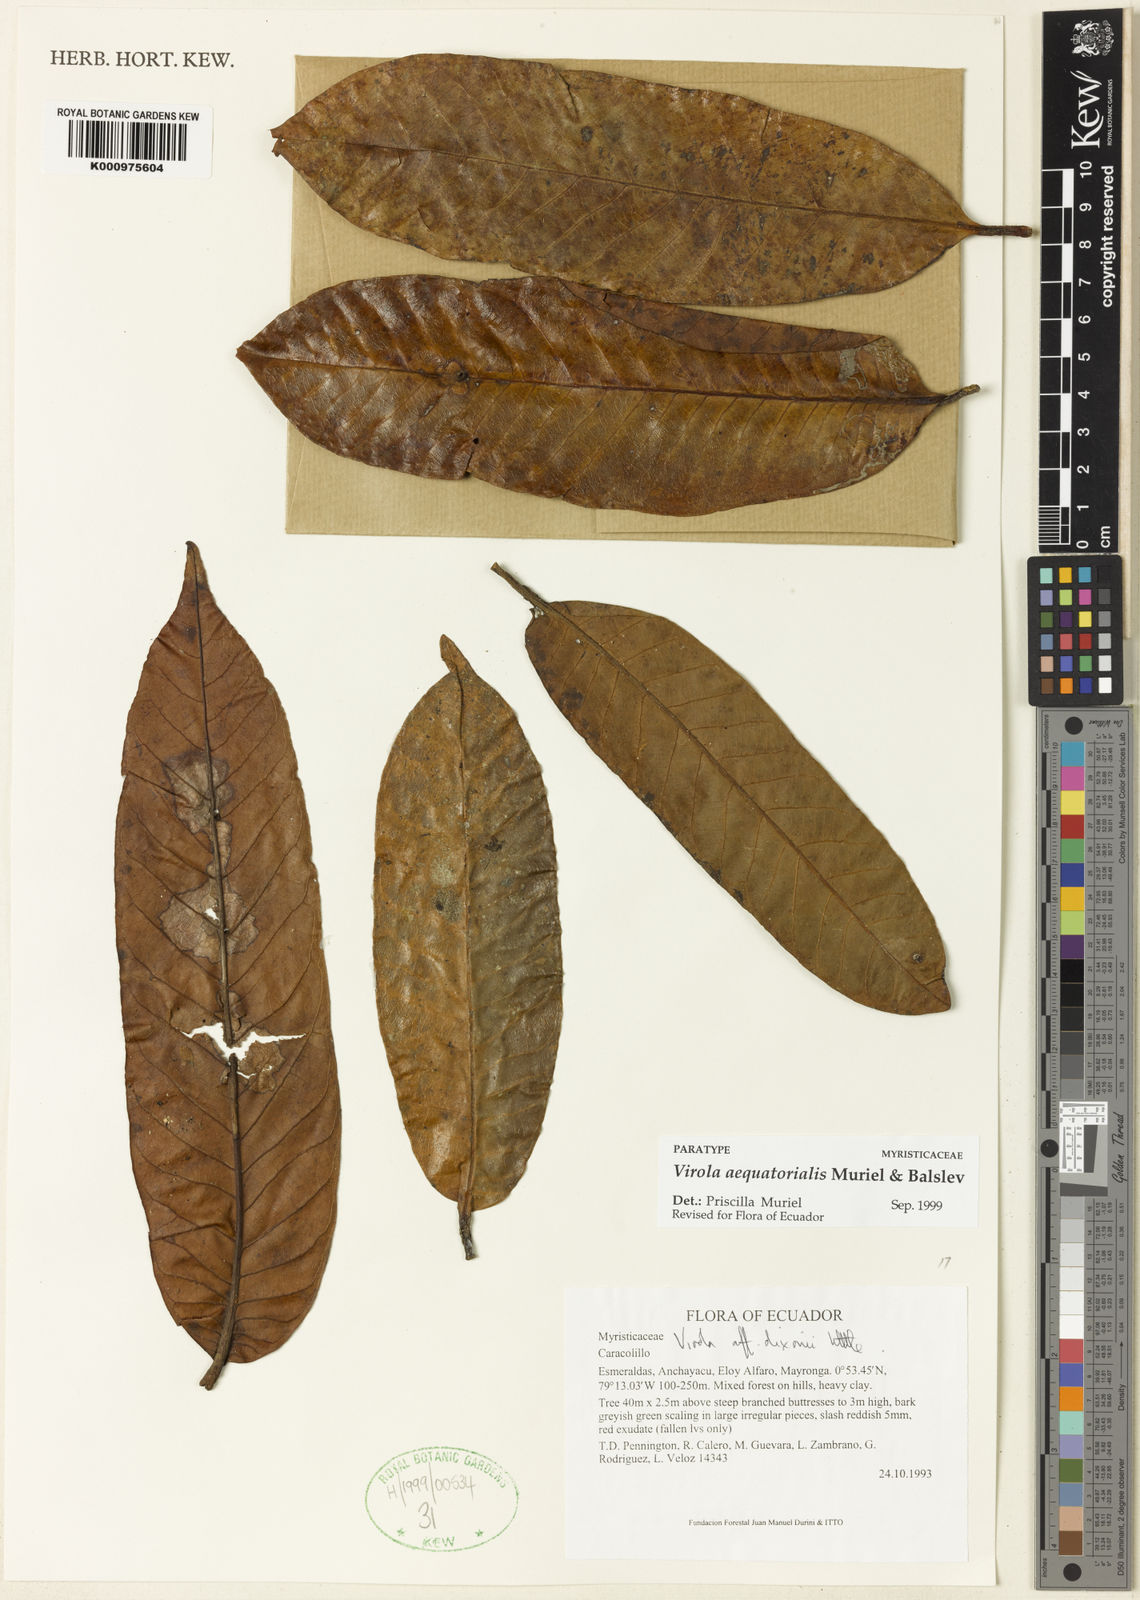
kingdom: Plantae
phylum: Tracheophyta
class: Magnoliopsida
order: Magnoliales
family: Myristicaceae
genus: Virola
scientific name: Virola aequatorialis
